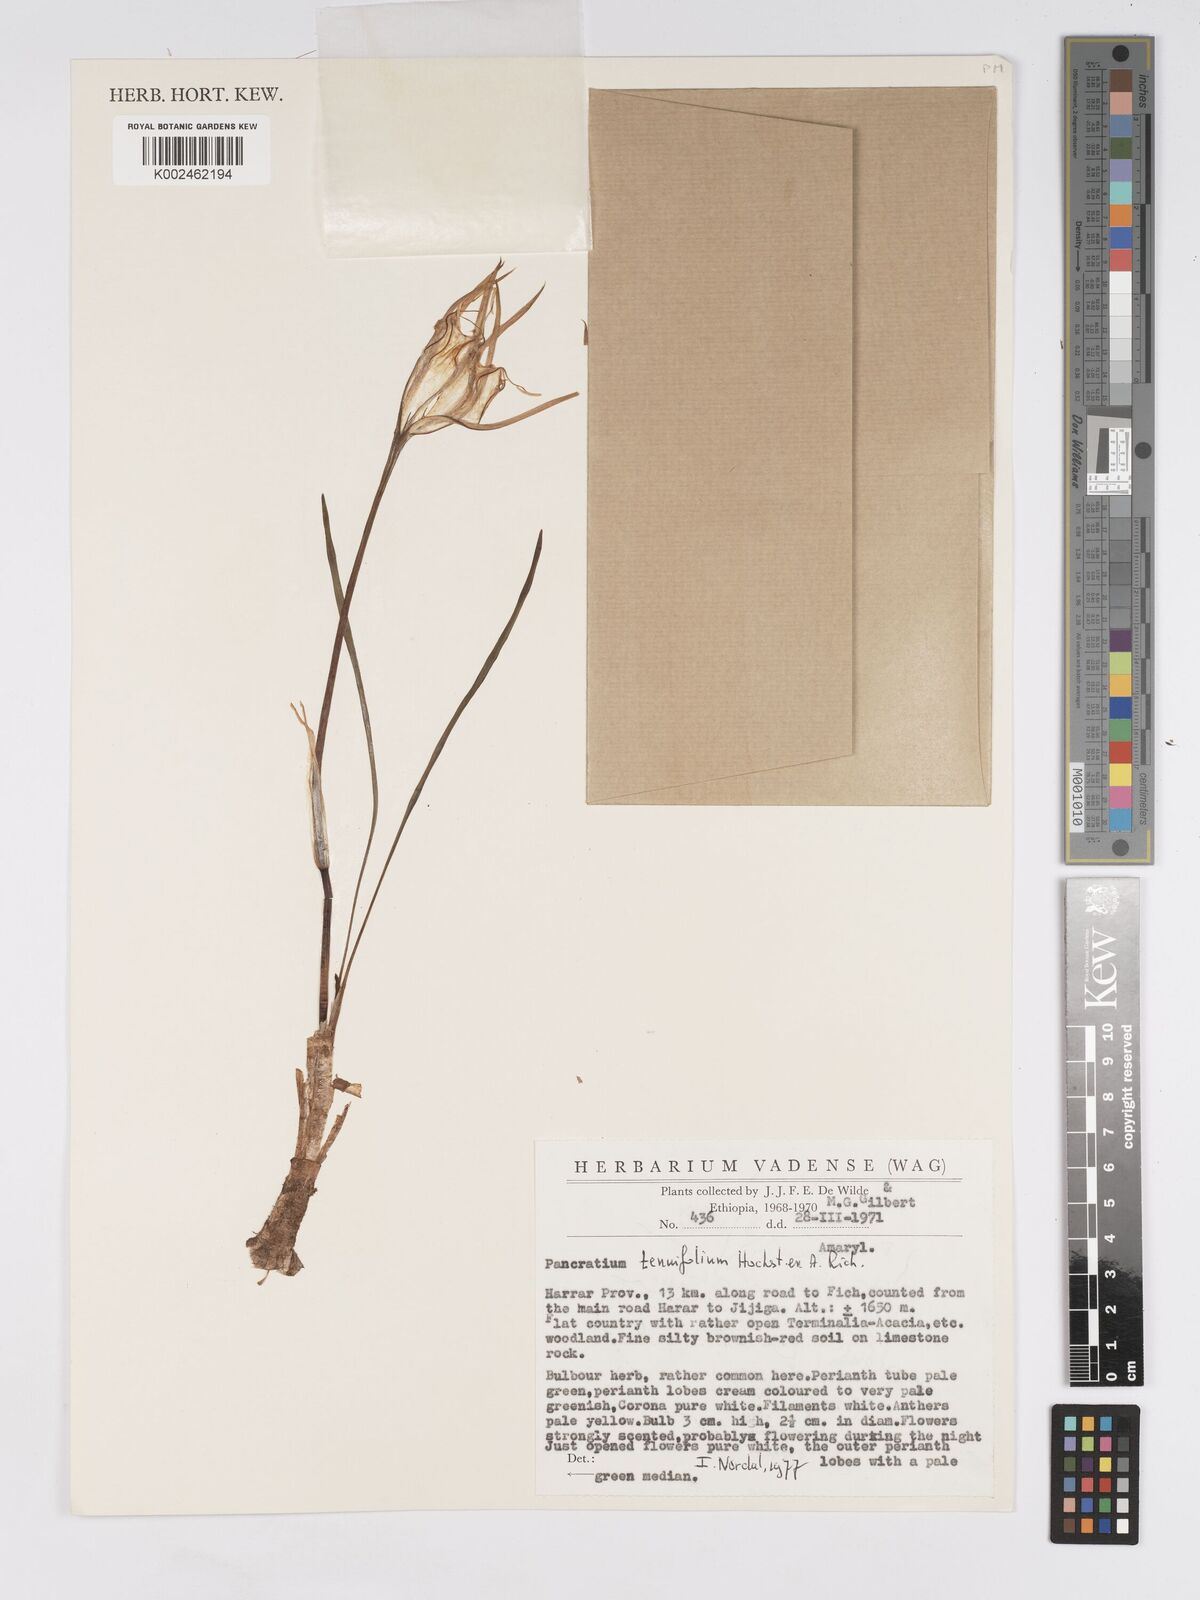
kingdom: Plantae
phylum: Tracheophyta
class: Liliopsida
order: Asparagales
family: Amaryllidaceae
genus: Pancratium
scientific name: Pancratium tenuifolium
